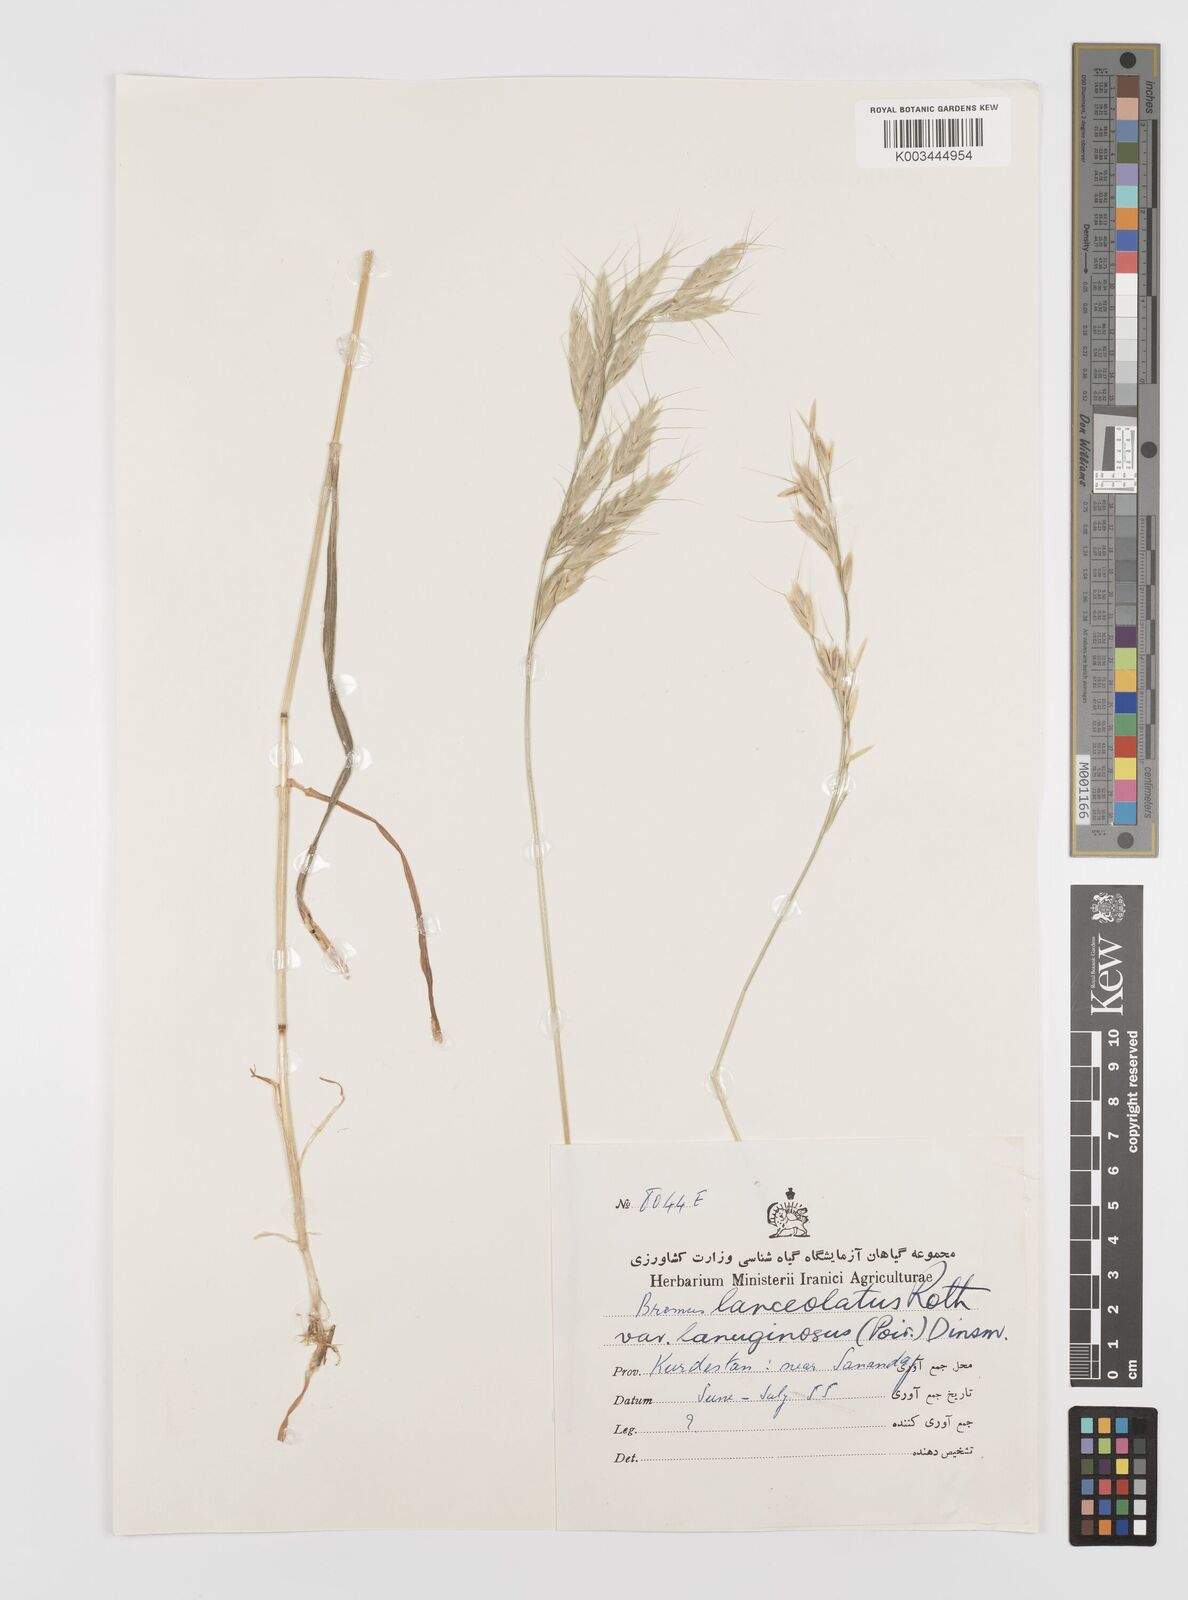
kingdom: Plantae
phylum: Tracheophyta
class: Liliopsida
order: Poales
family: Poaceae
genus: Bromus
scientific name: Bromus lanceolatus
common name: Mediterranean brome
